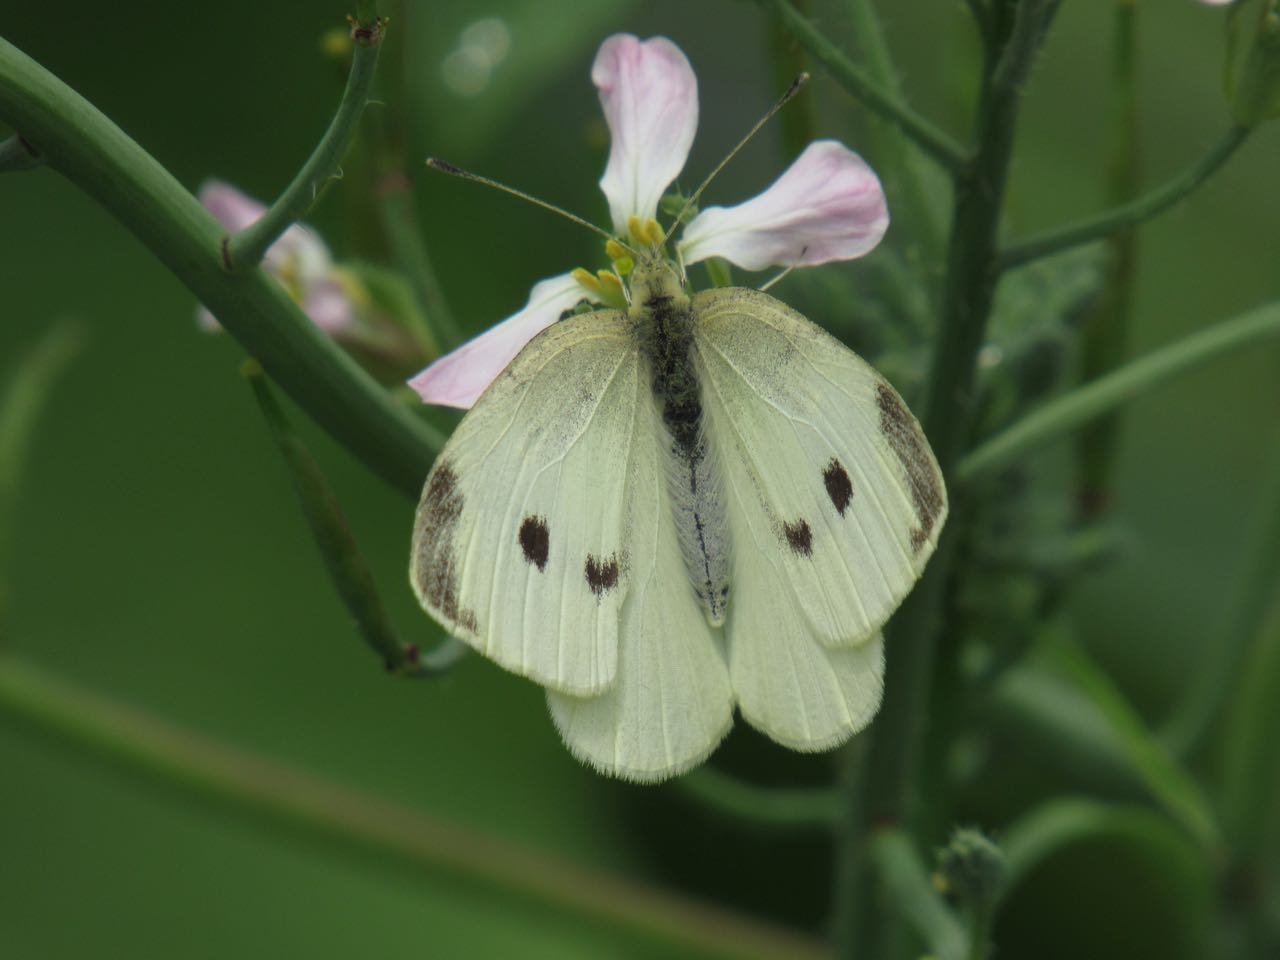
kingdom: Animalia
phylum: Arthropoda
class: Insecta
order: Lepidoptera
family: Pieridae
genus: Pieris
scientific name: Pieris rapae
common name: Cabbage White
